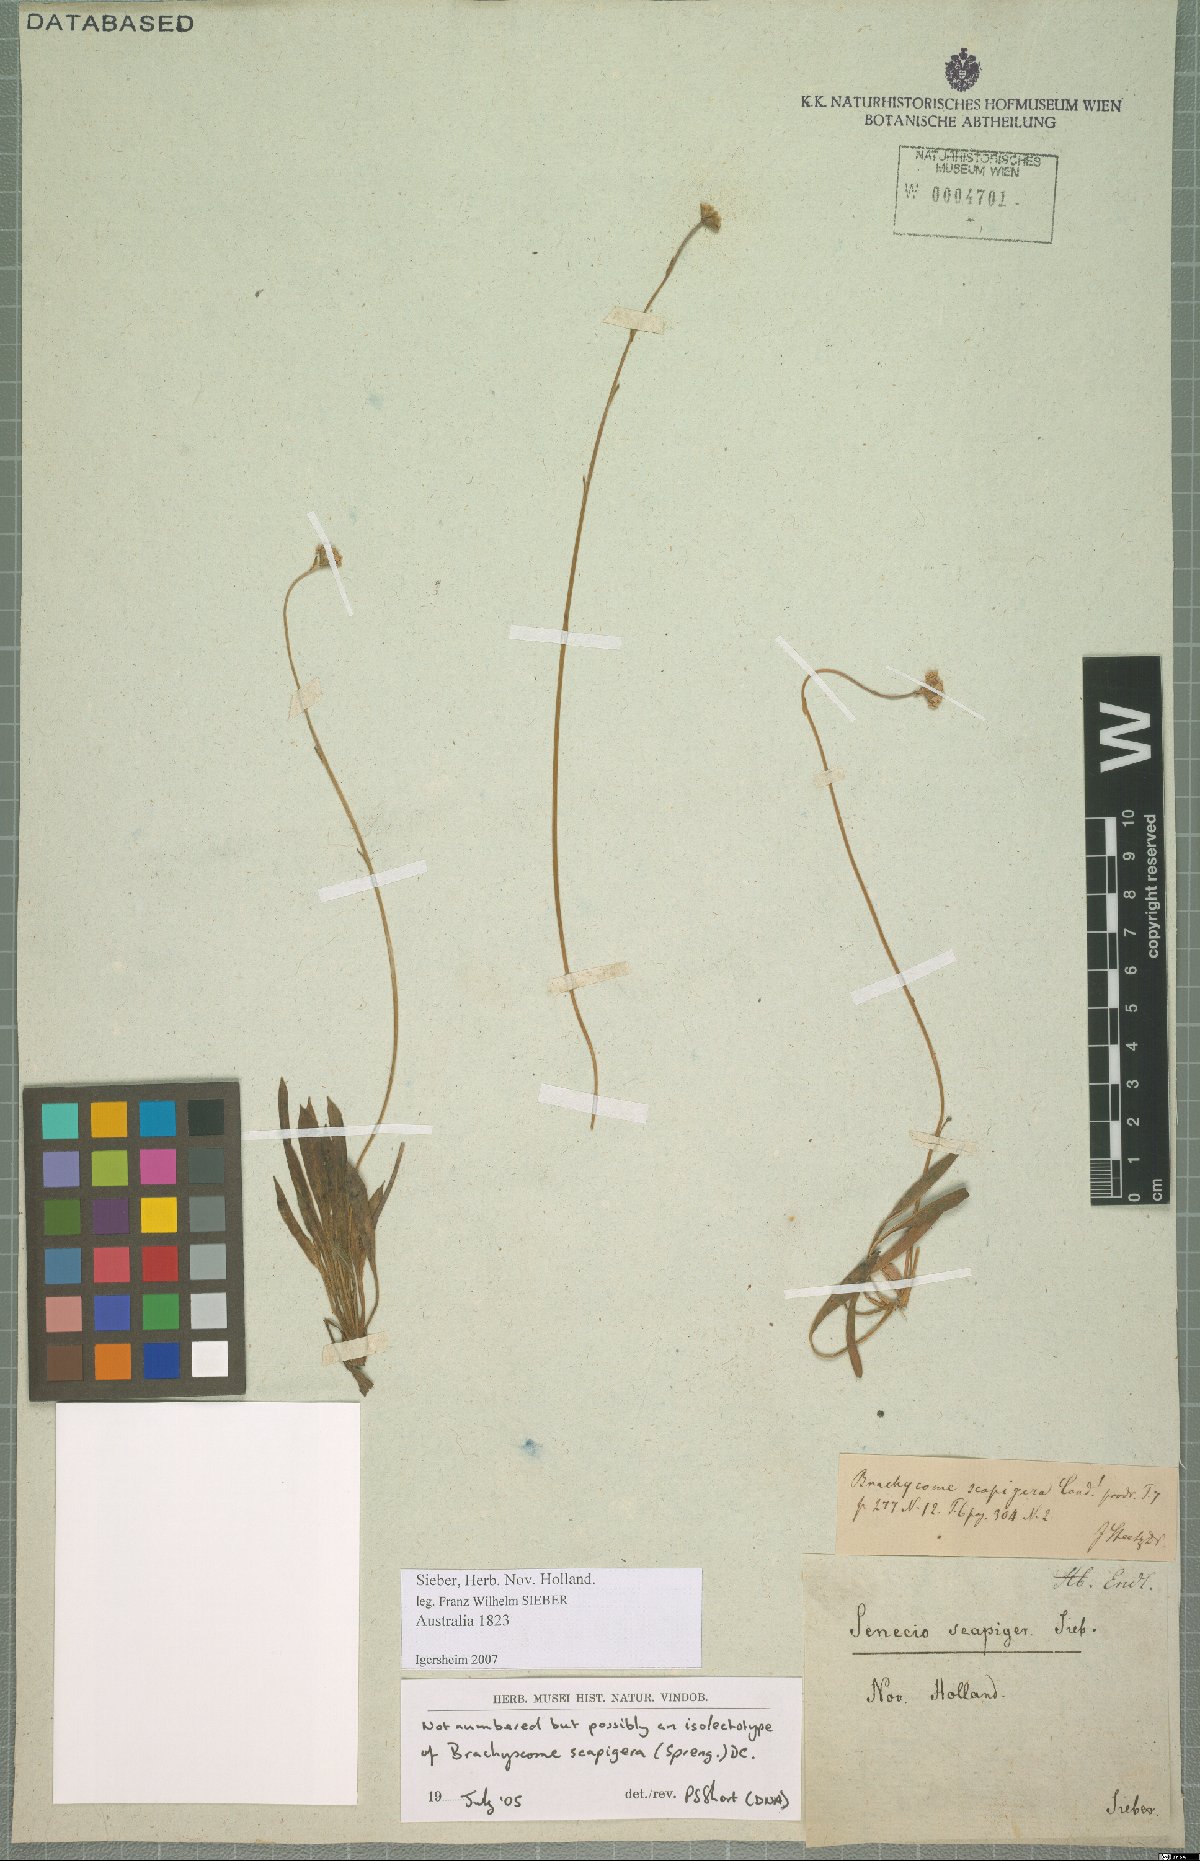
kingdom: Plantae
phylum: Tracheophyta
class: Magnoliopsida
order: Asterales
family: Asteraceae
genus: Brachyscome
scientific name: Brachyscome scapigera
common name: Tufted daisy
